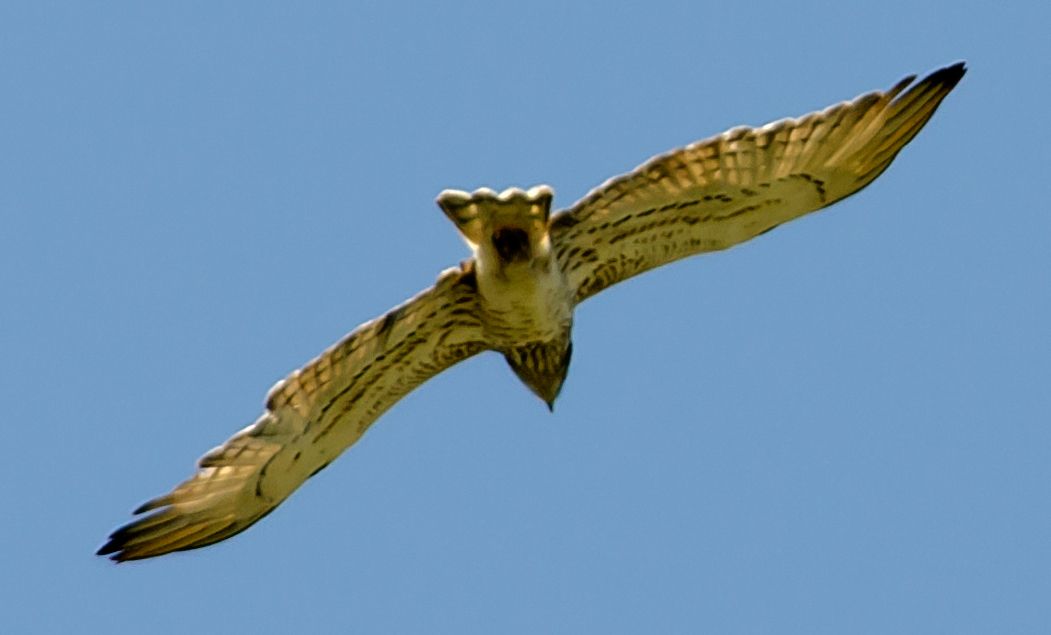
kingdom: Animalia
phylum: Chordata
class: Aves
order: Accipitriformes
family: Accipitridae
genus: Circaetus
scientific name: Circaetus gallicus
